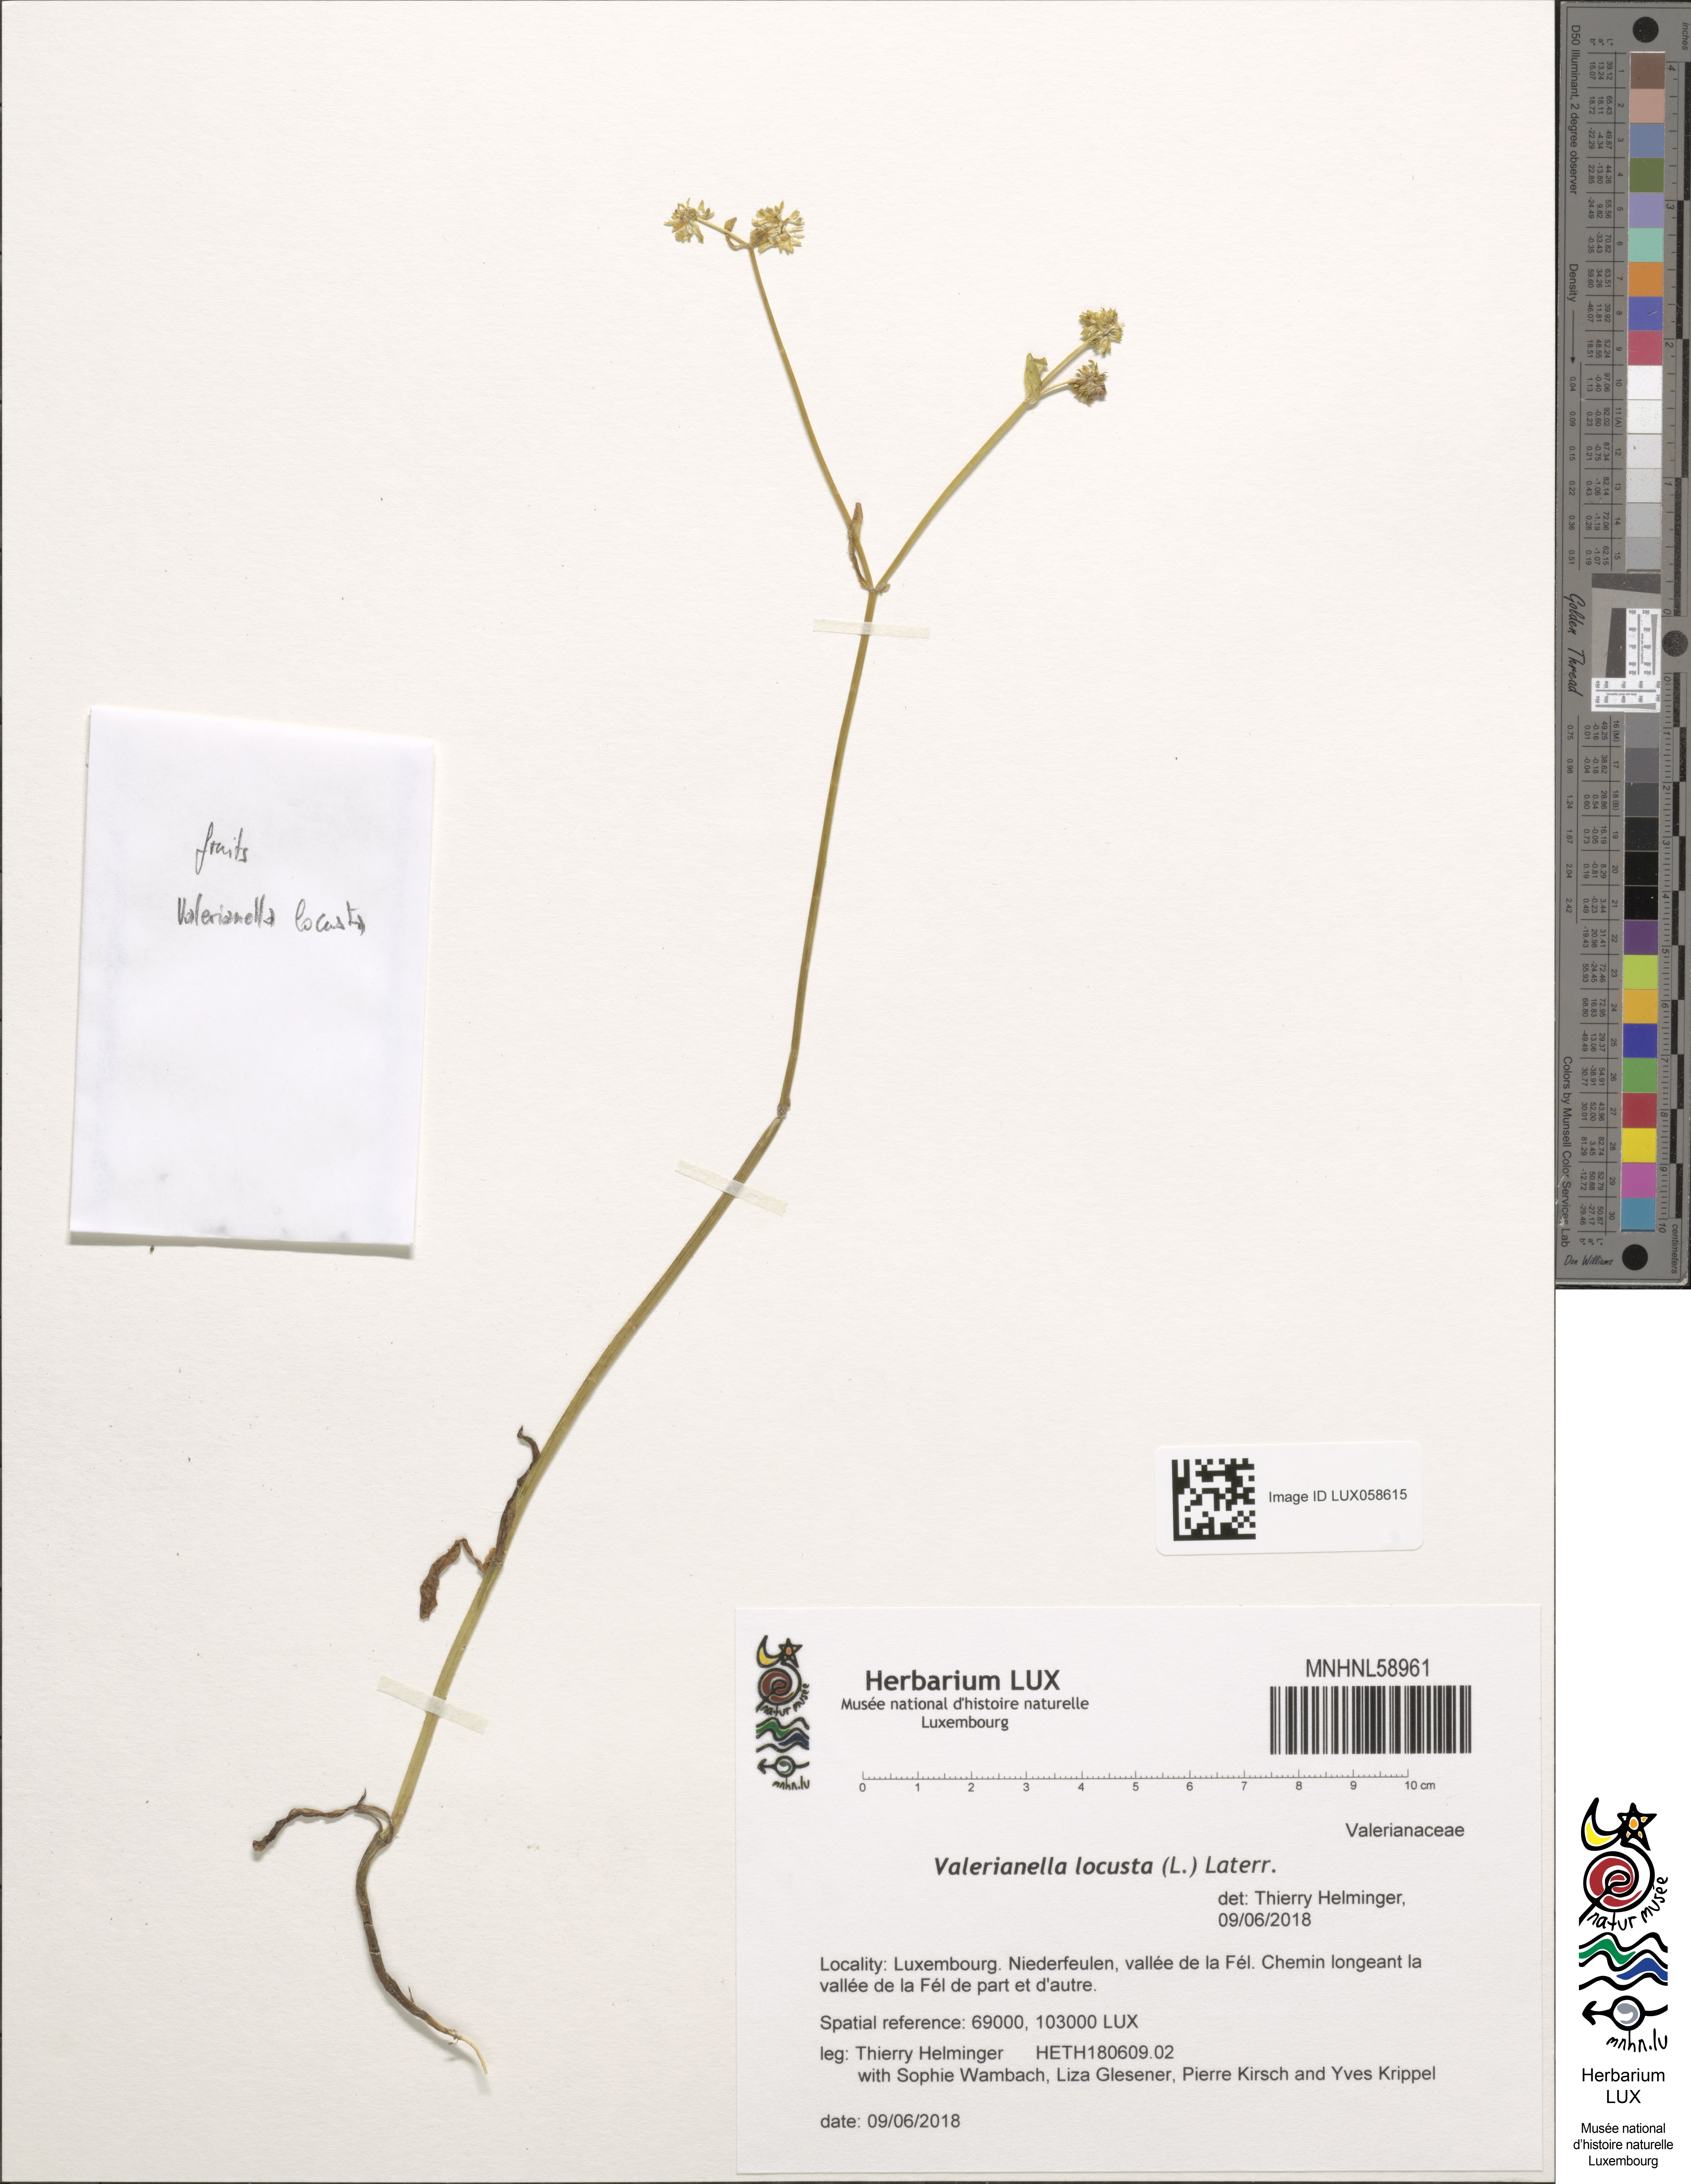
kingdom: Plantae
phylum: Tracheophyta
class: Magnoliopsida
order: Dipsacales
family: Caprifoliaceae
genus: Valerianella
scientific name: Valerianella locusta
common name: Common cornsalad
